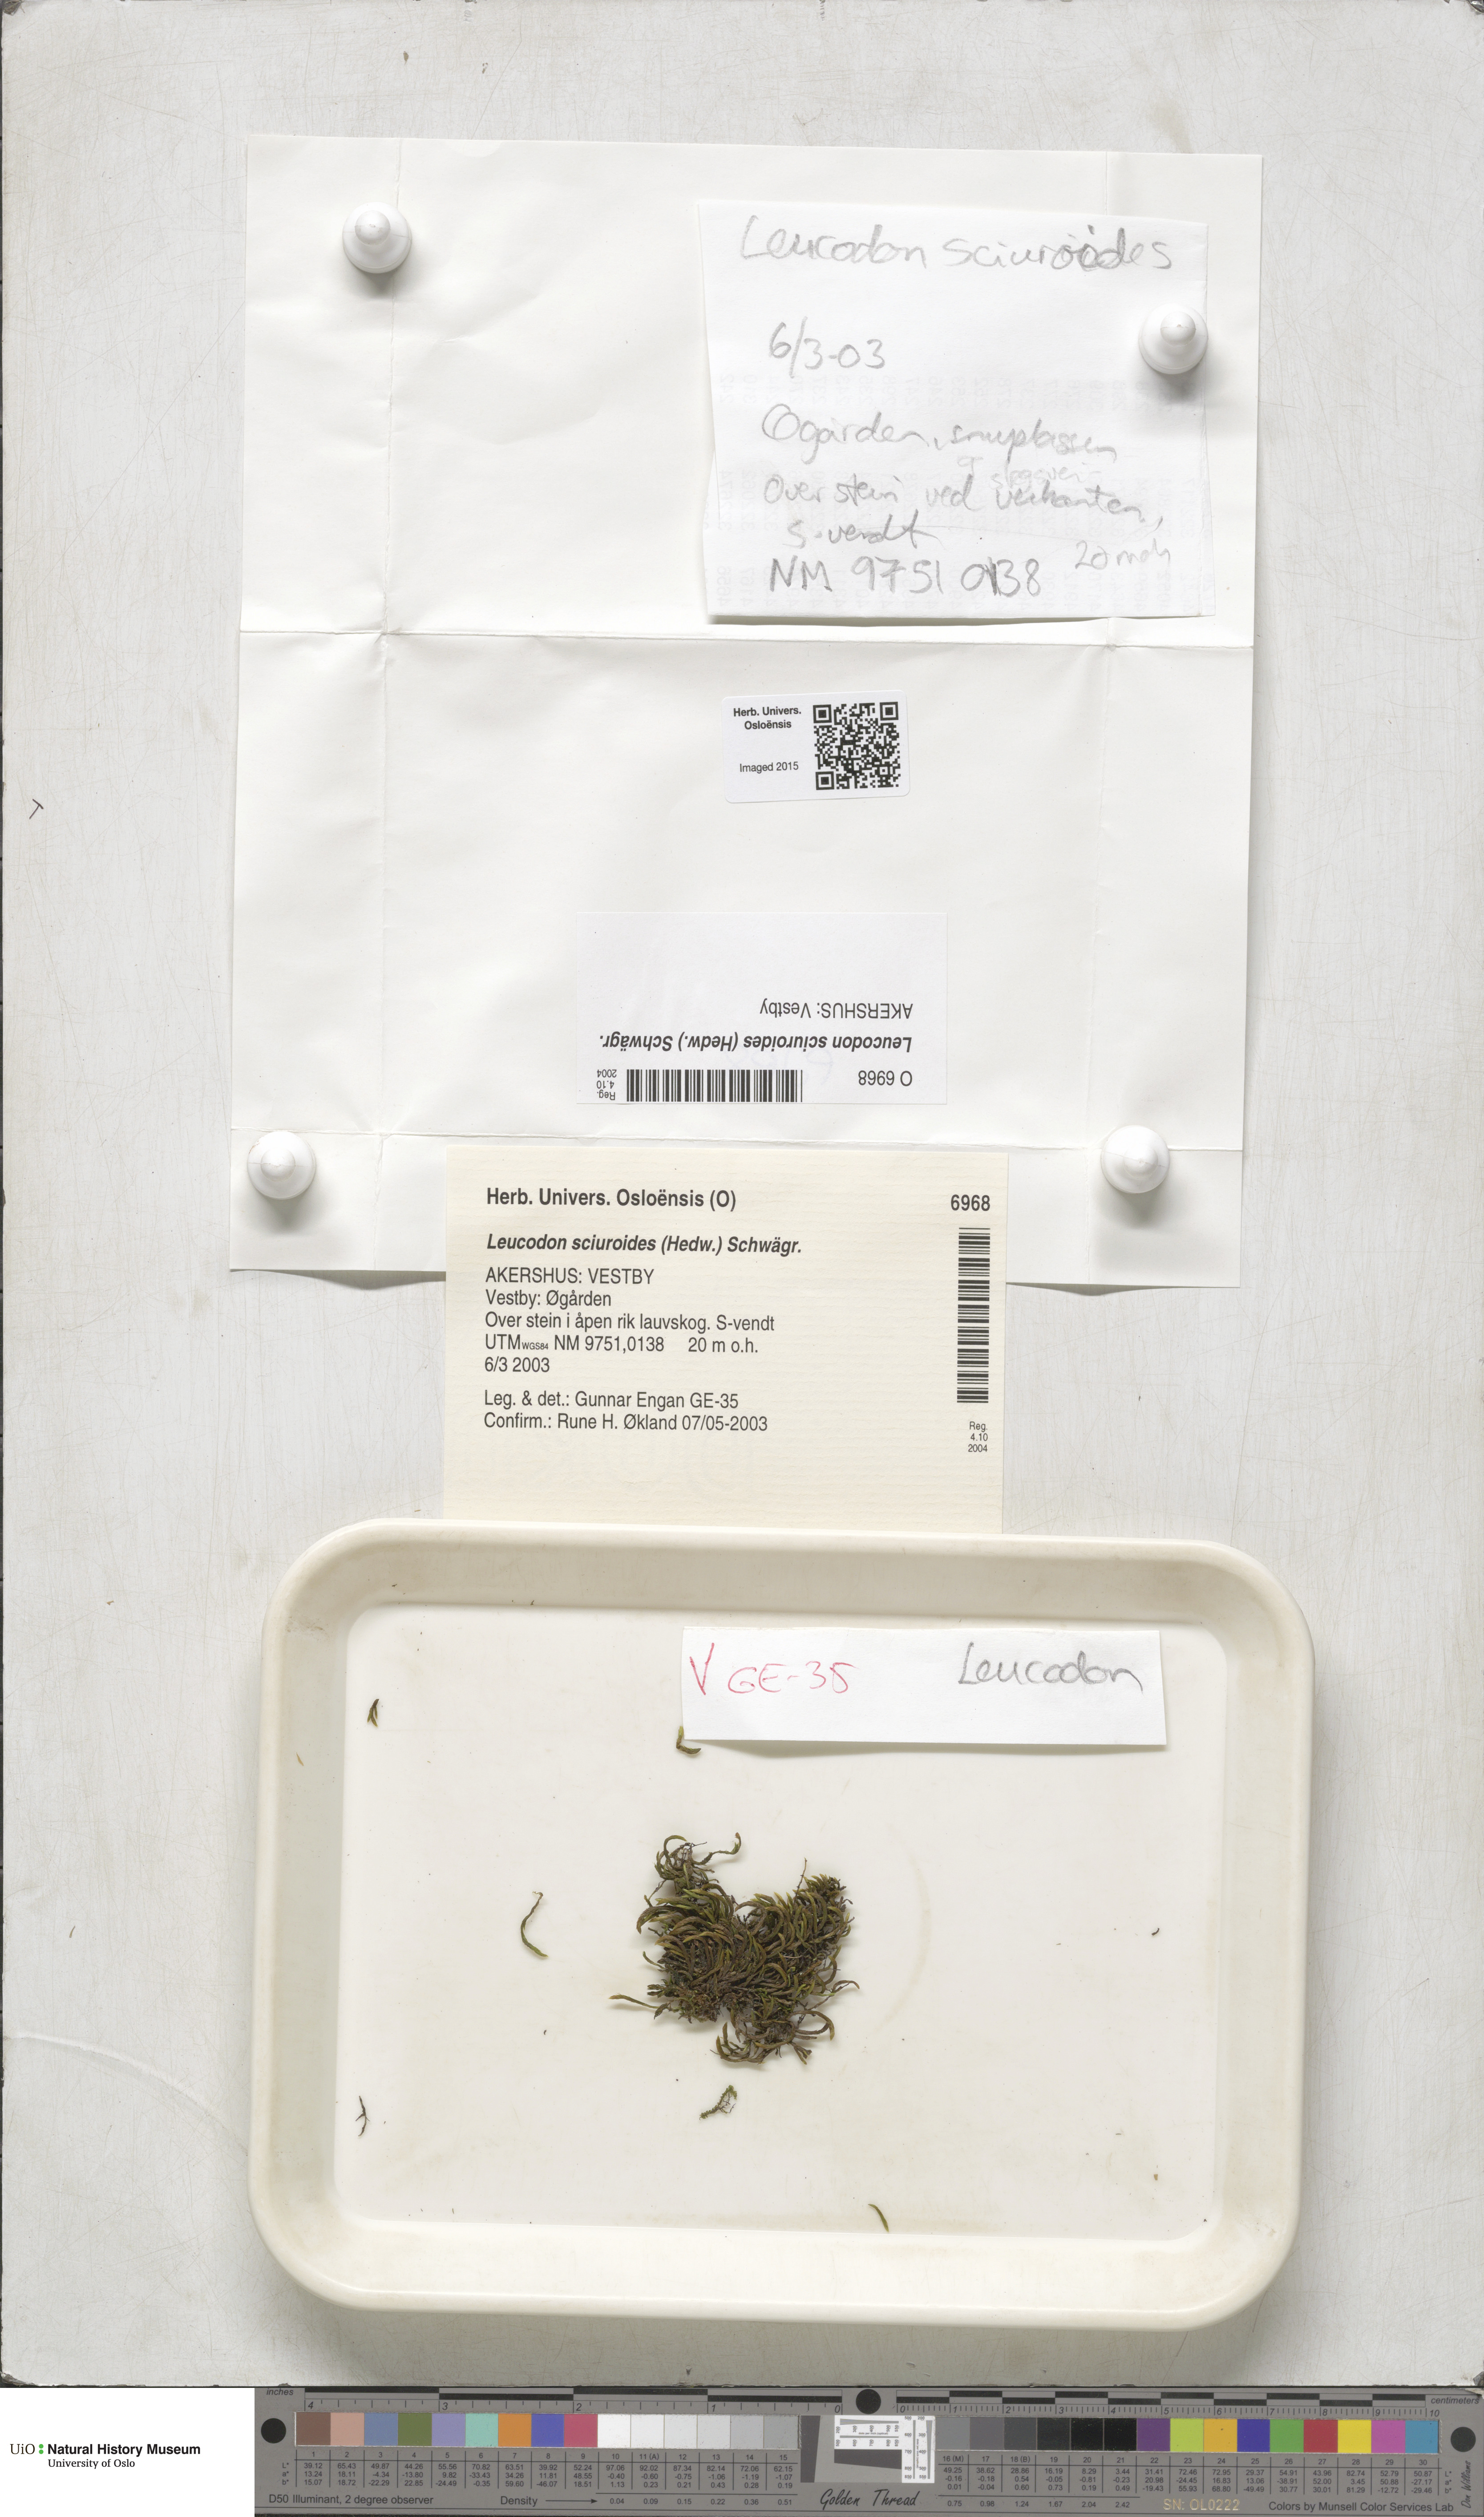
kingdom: Plantae
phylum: Bryophyta
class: Bryopsida
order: Hypnales
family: Leucodontaceae
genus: Leucodon
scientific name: Leucodon sciuroides
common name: Squirrel-tail moss
